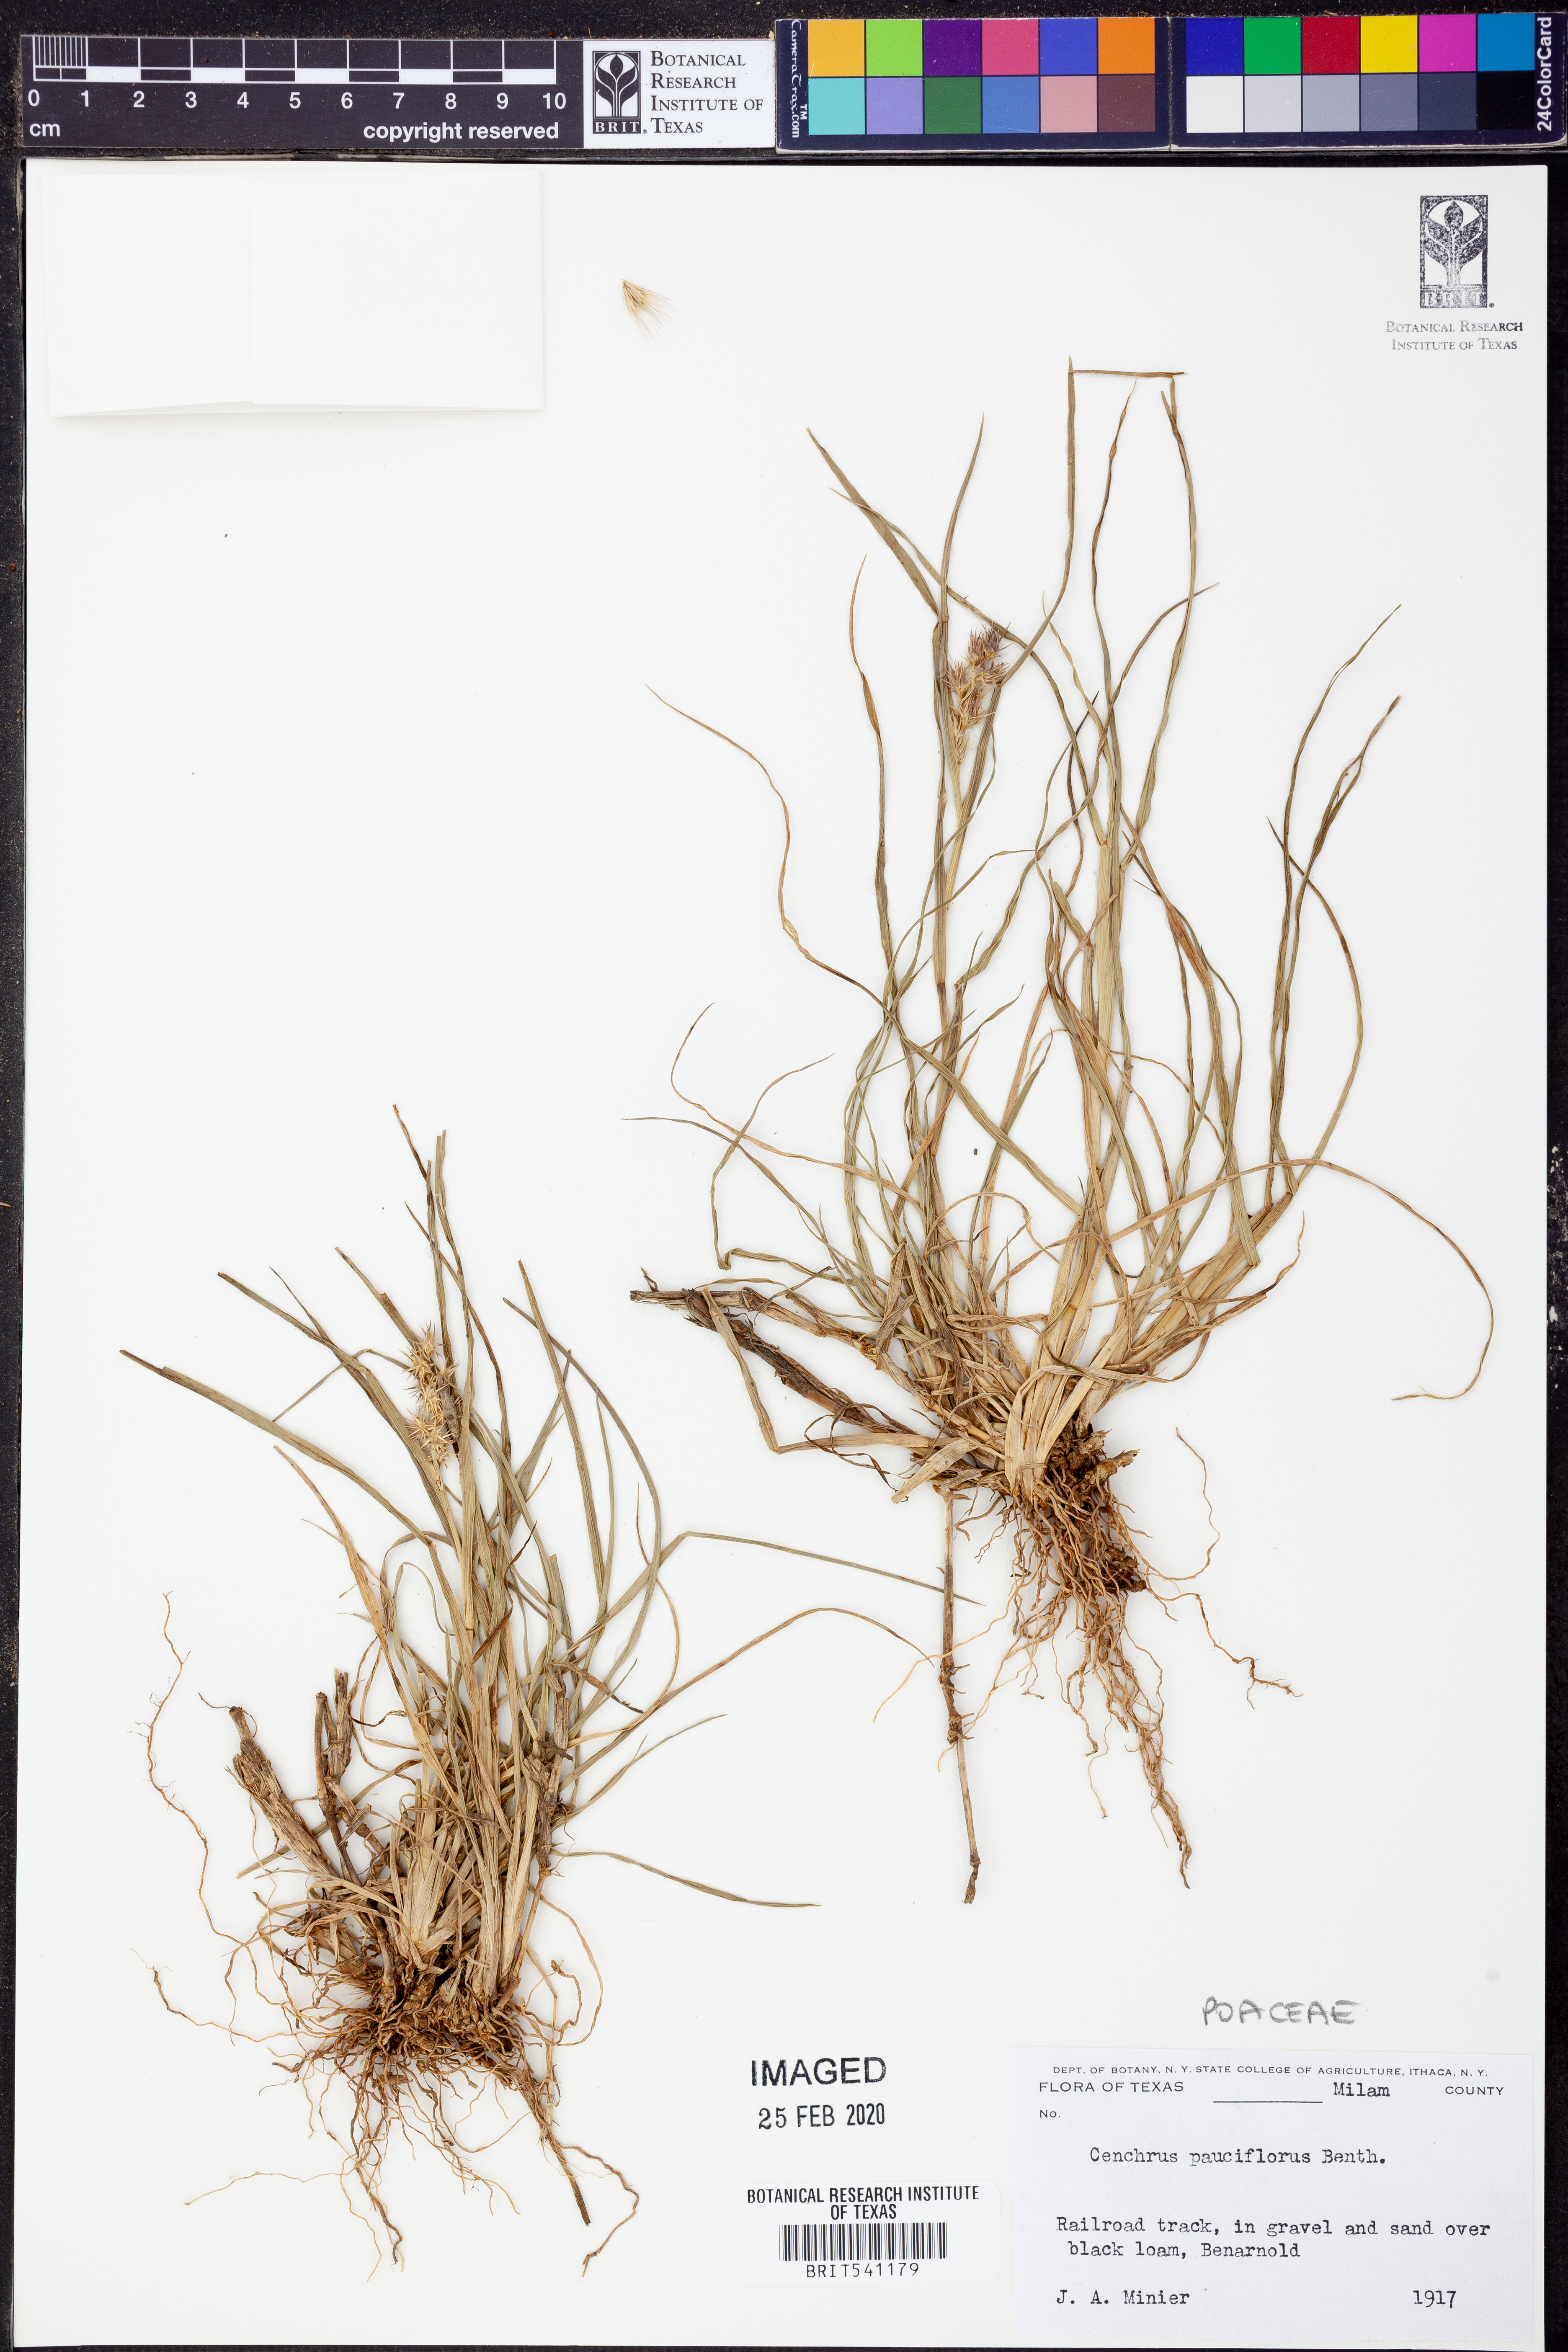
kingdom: Plantae
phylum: Tracheophyta
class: Liliopsida
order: Poales
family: Poaceae
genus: Cenchrus
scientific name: Cenchrus spinifex
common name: Coast sandbur
